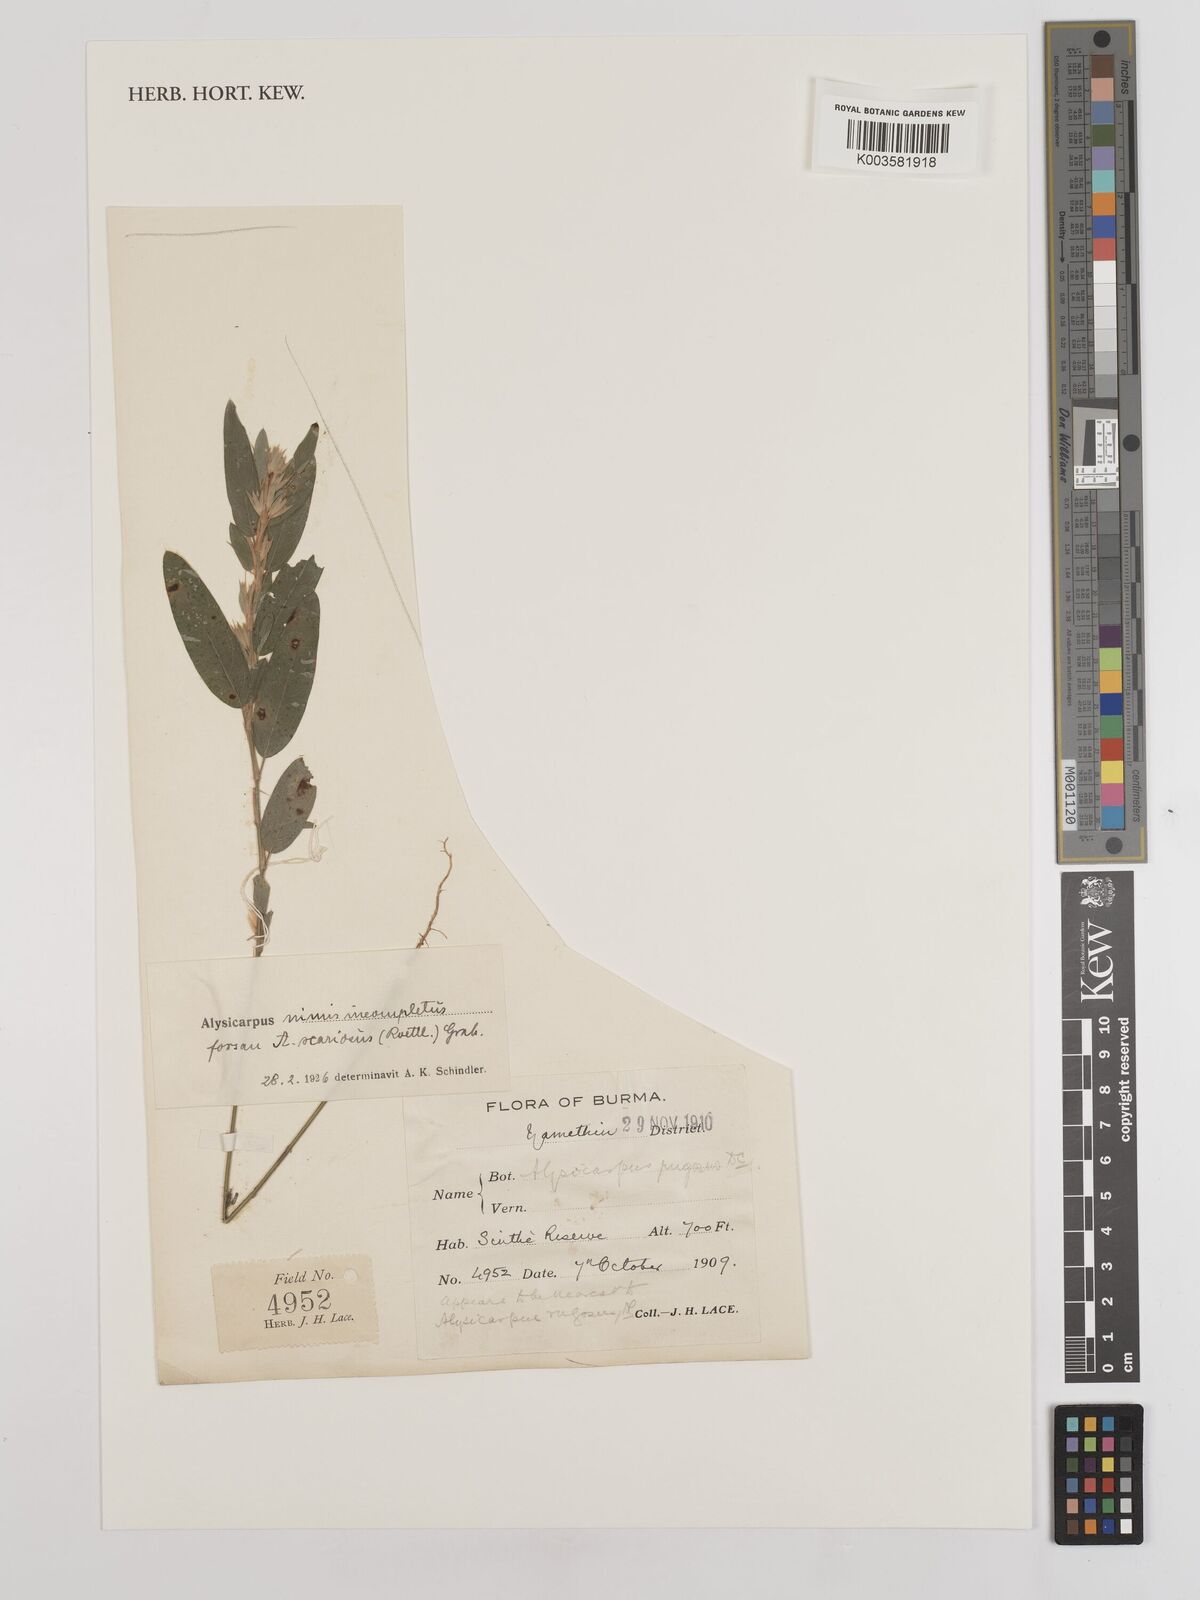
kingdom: Plantae
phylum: Tracheophyta
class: Magnoliopsida
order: Fabales
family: Fabaceae
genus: Alysicarpus
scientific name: Alysicarpus scariosus
